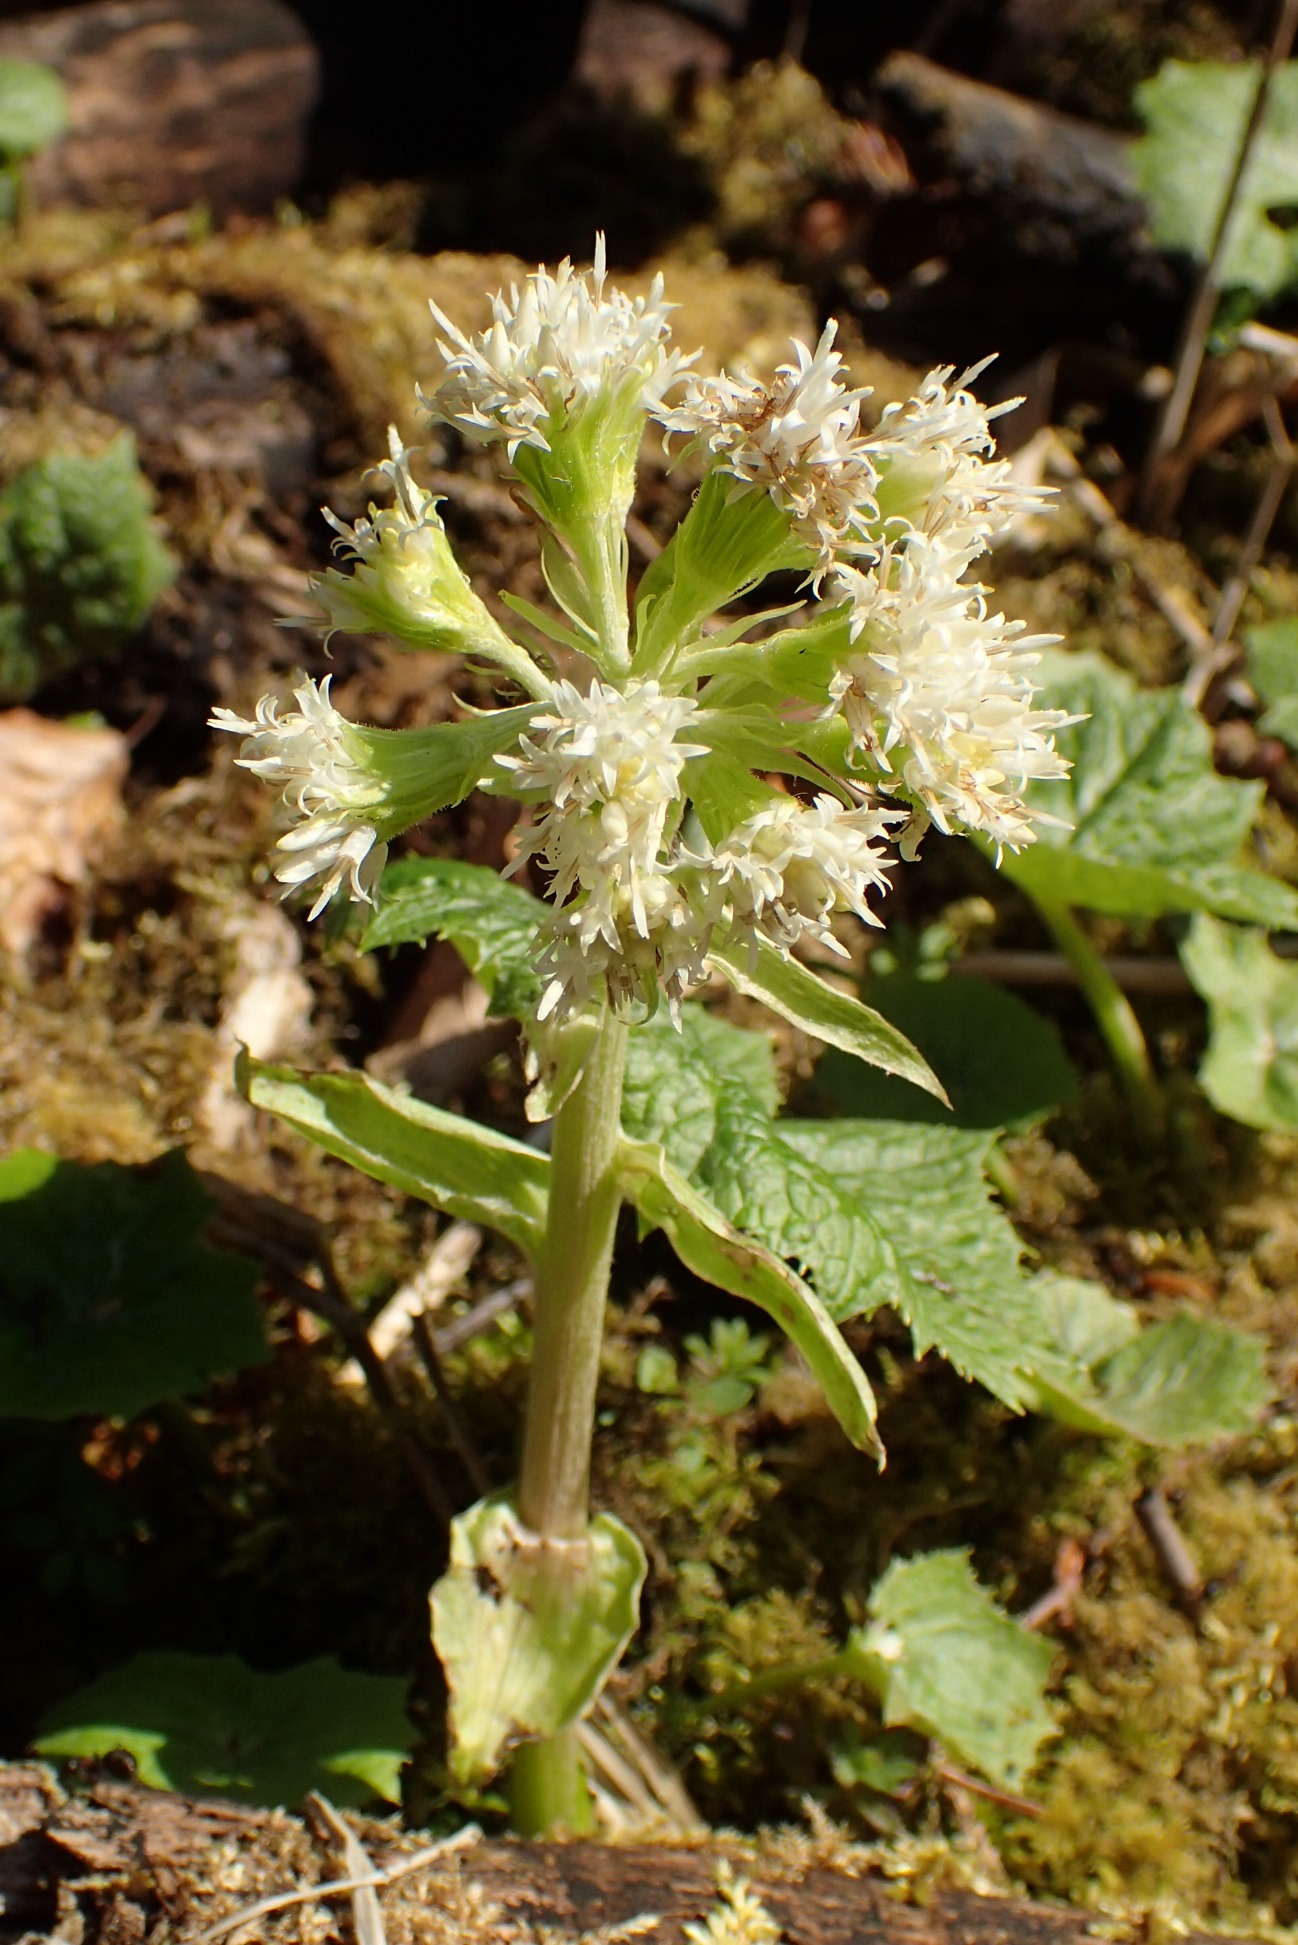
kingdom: Plantae
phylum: Tracheophyta
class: Magnoliopsida
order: Asterales
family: Asteraceae
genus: Petasites
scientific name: Petasites albus
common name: Hvid hestehov
